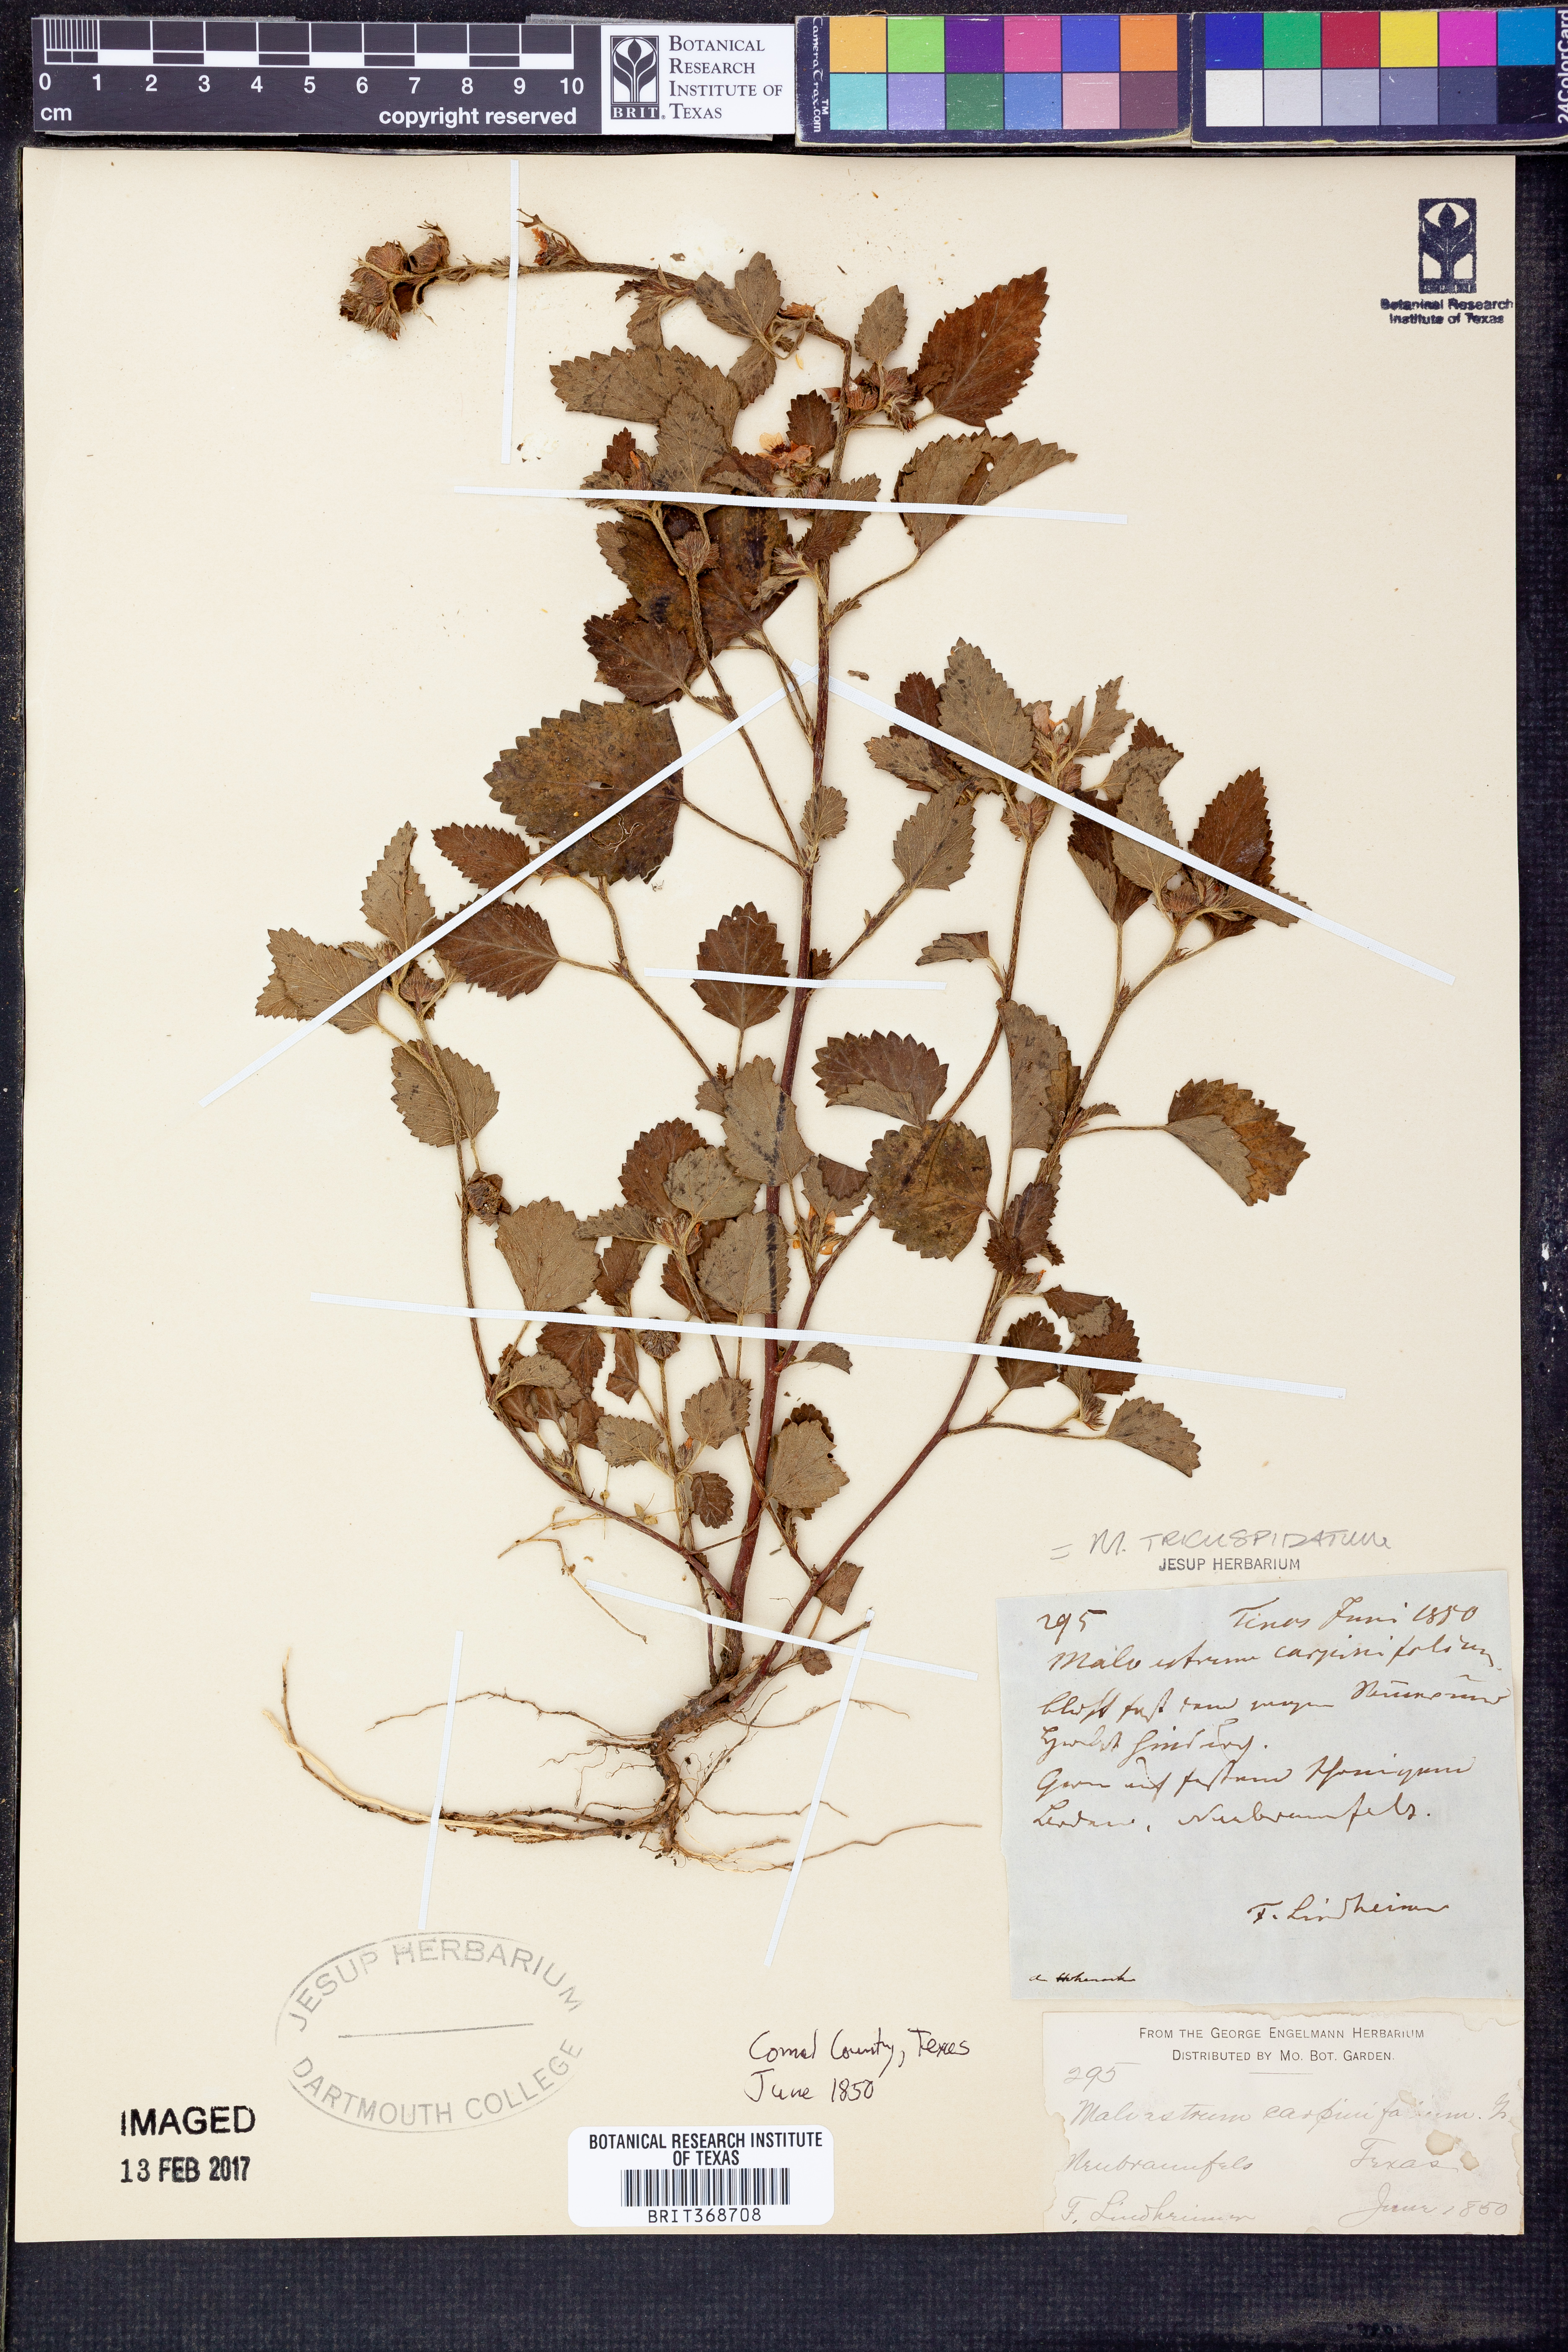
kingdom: Plantae
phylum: Tracheophyta
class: Magnoliopsida
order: Malvales
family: Malvaceae
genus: Malvastrum
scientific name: Malvastrum coromandelianum
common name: Threelobe false mallow
